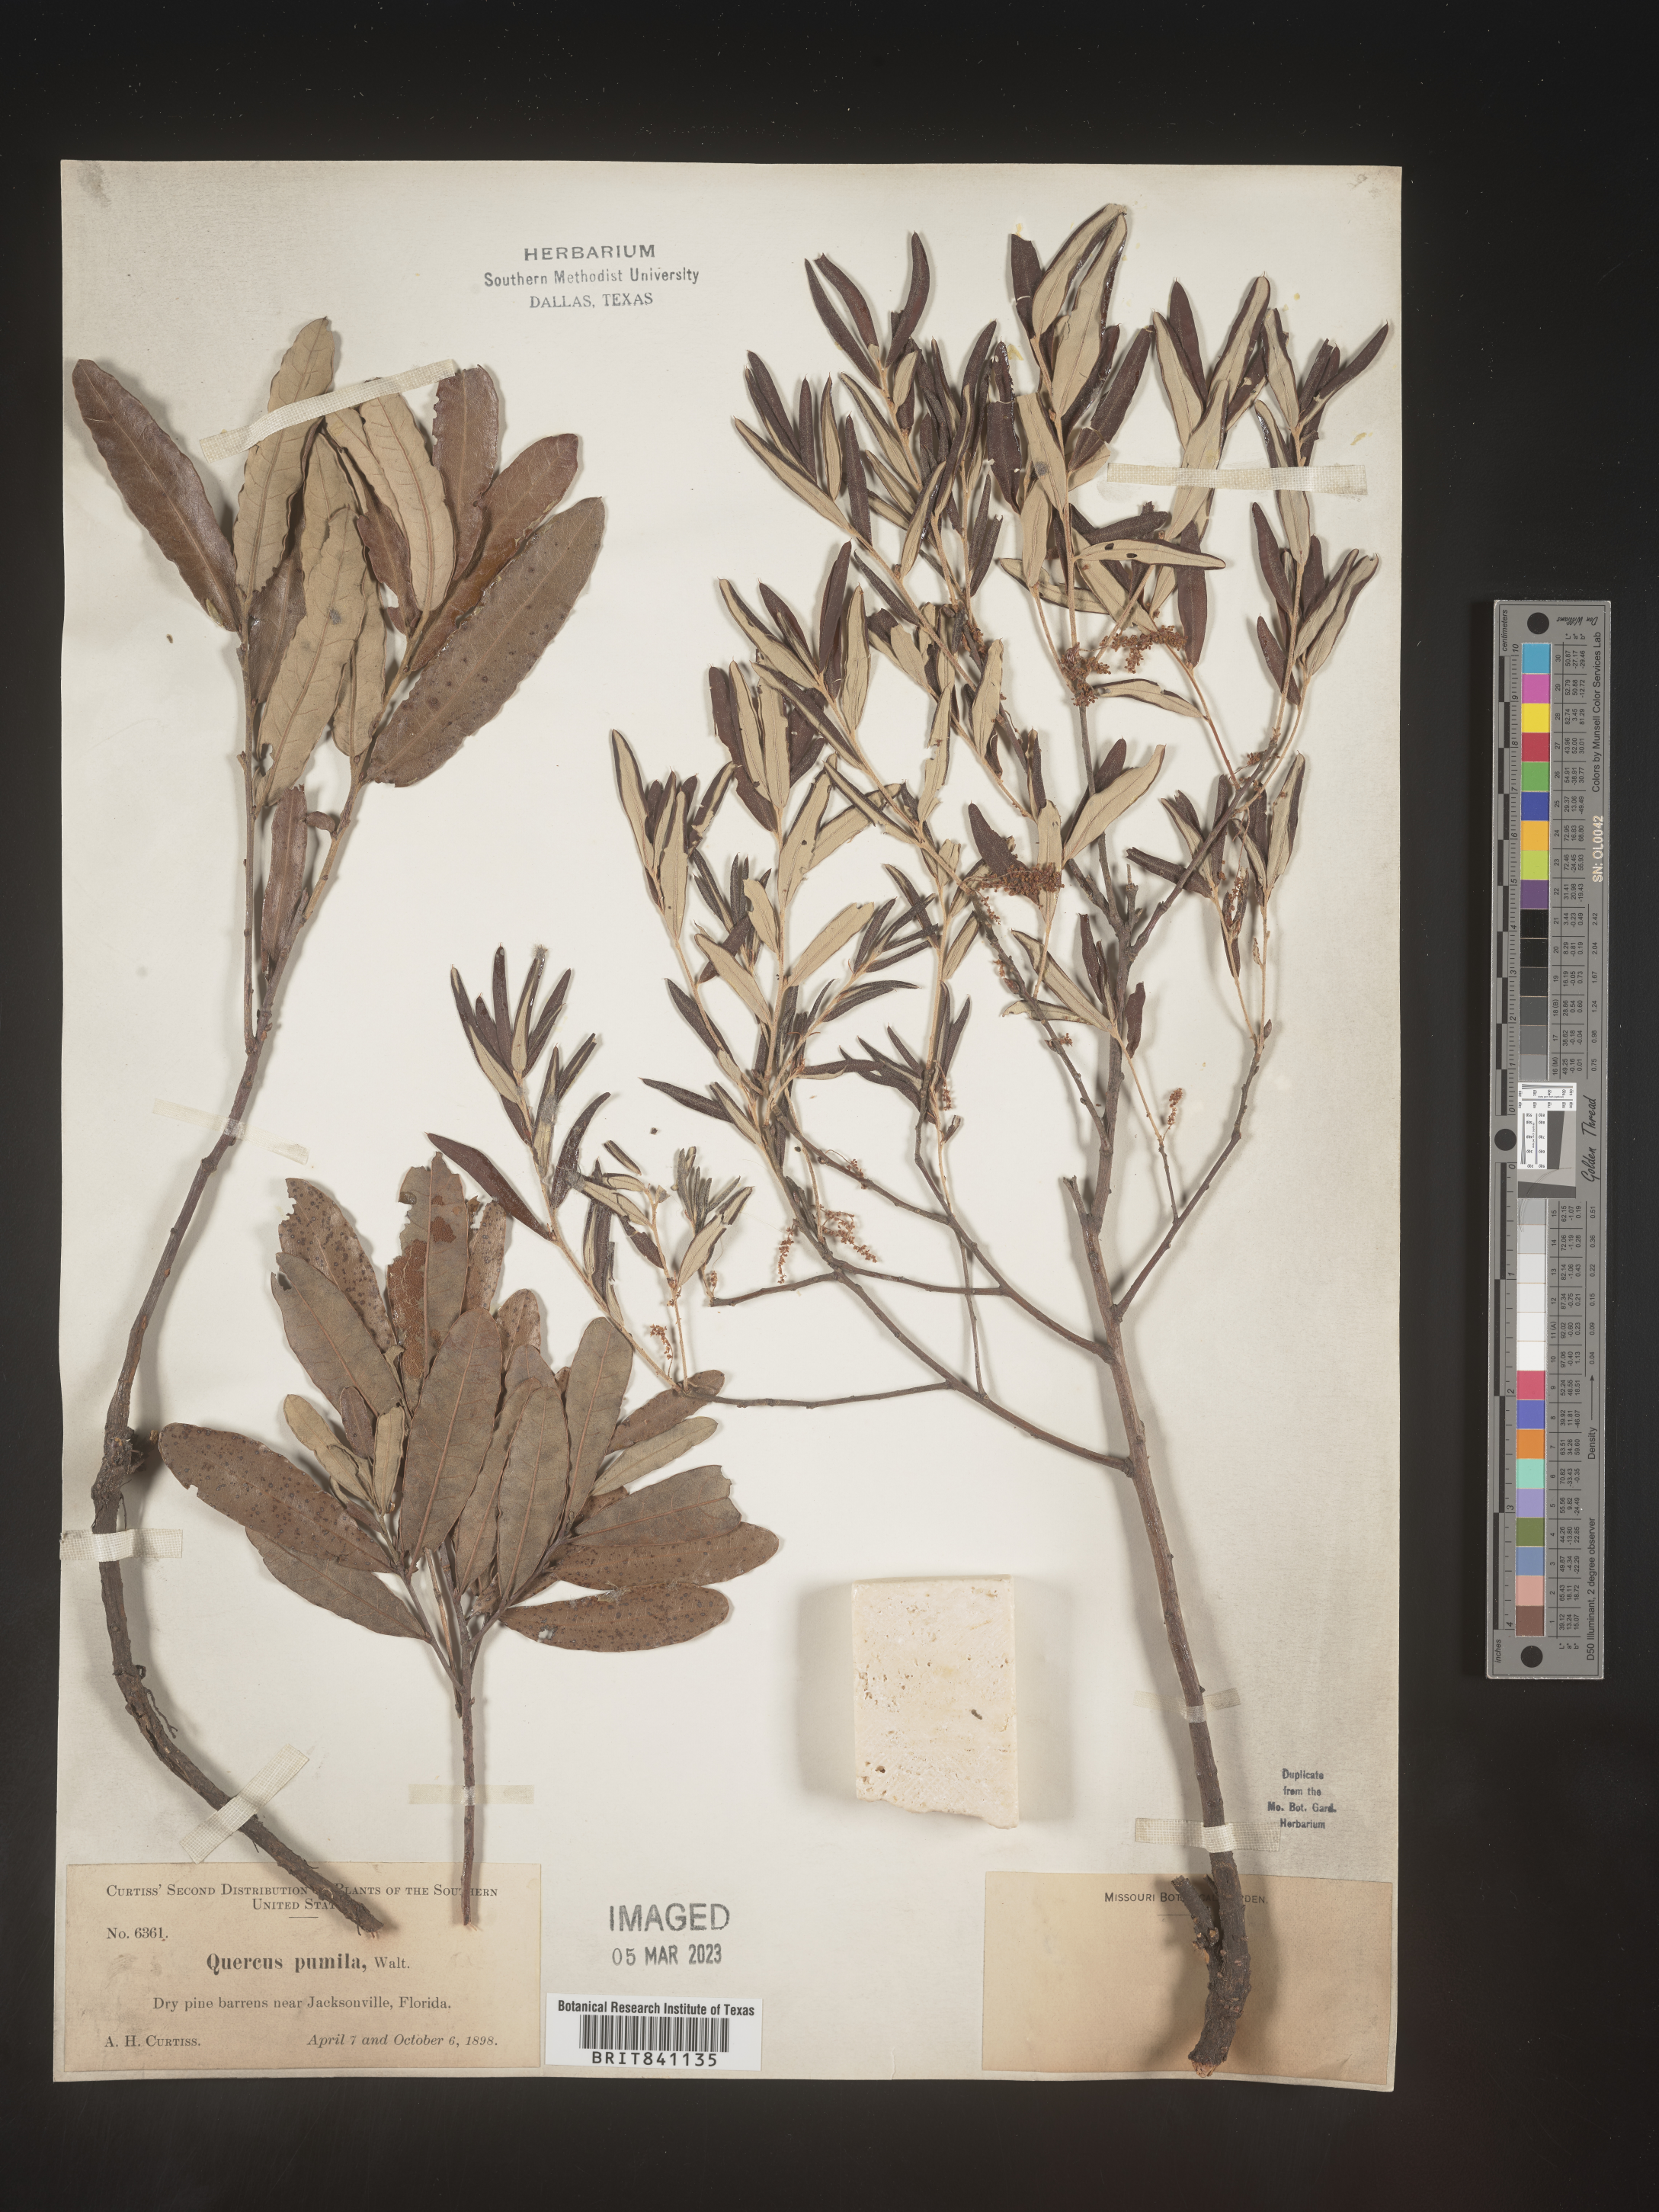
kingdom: Plantae
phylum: Tracheophyta
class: Magnoliopsida
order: Fagales
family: Fagaceae
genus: Quercus
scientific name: Quercus pumila
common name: Runner oak
